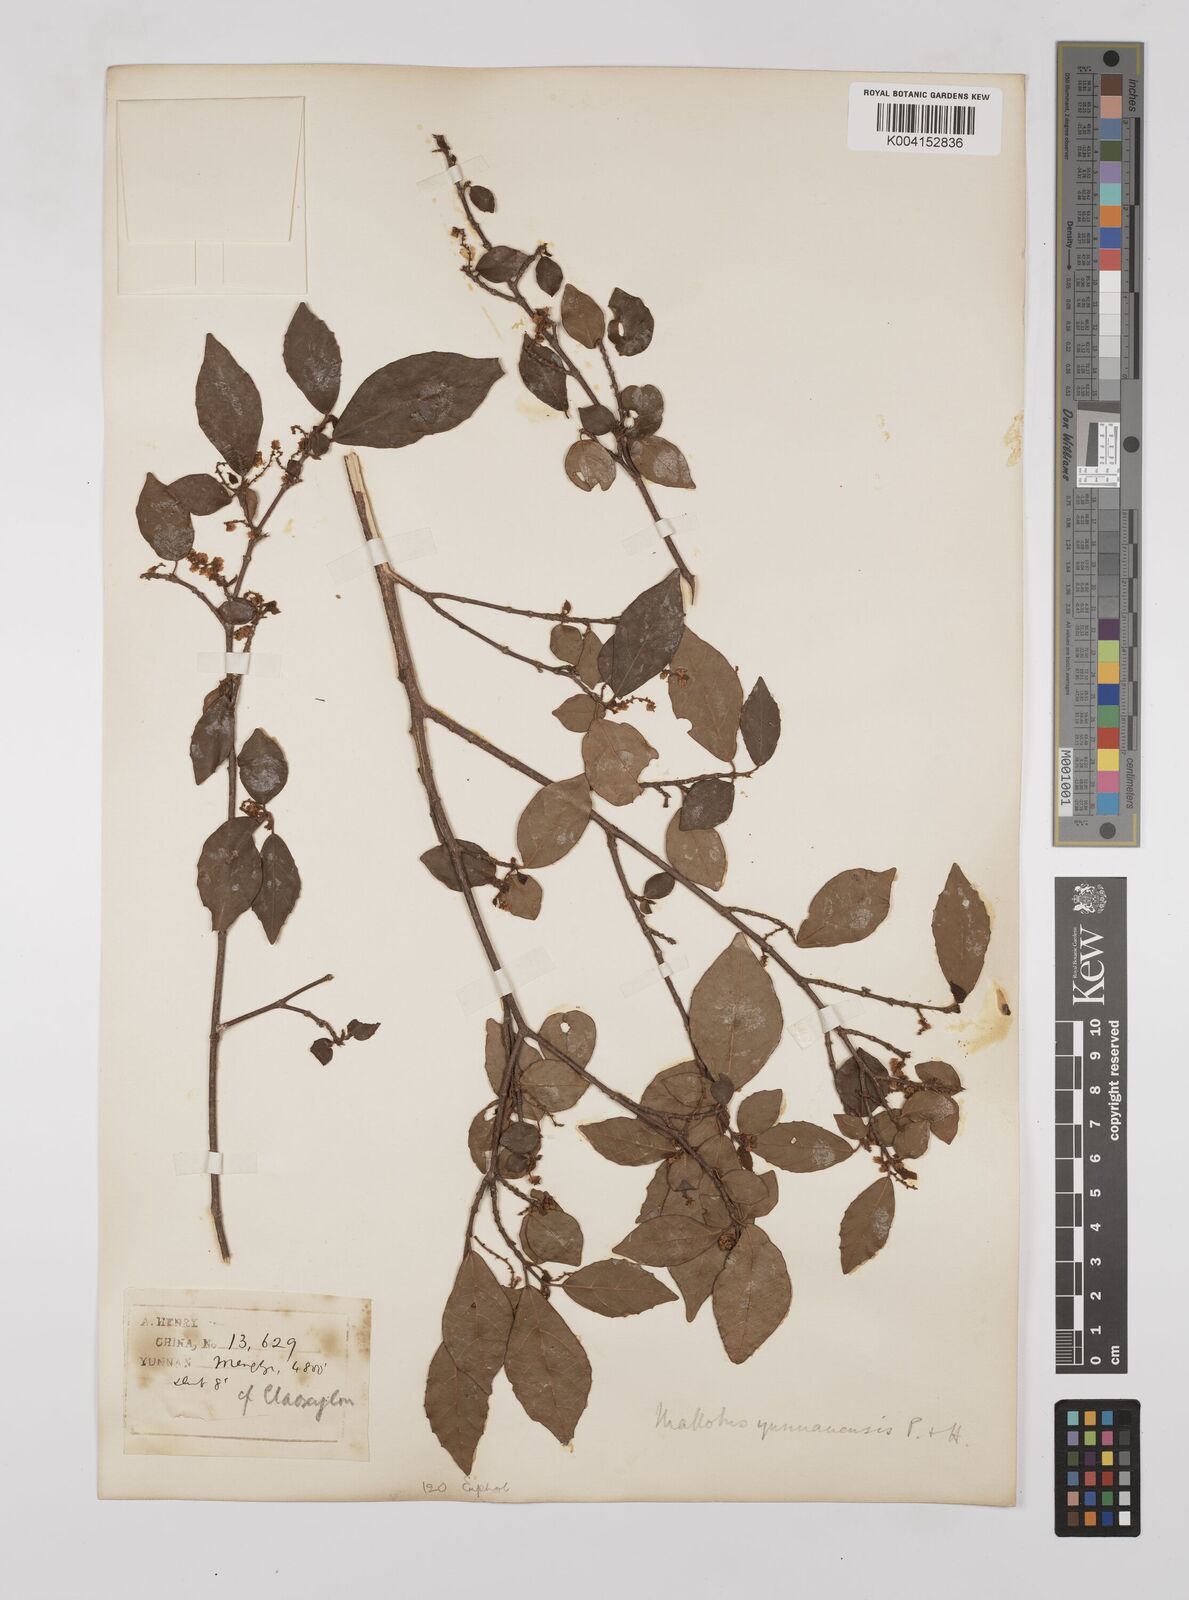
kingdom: Plantae
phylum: Tracheophyta
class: Magnoliopsida
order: Malpighiales
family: Euphorbiaceae
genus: Mallotus
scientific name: Mallotus yunnanensis
